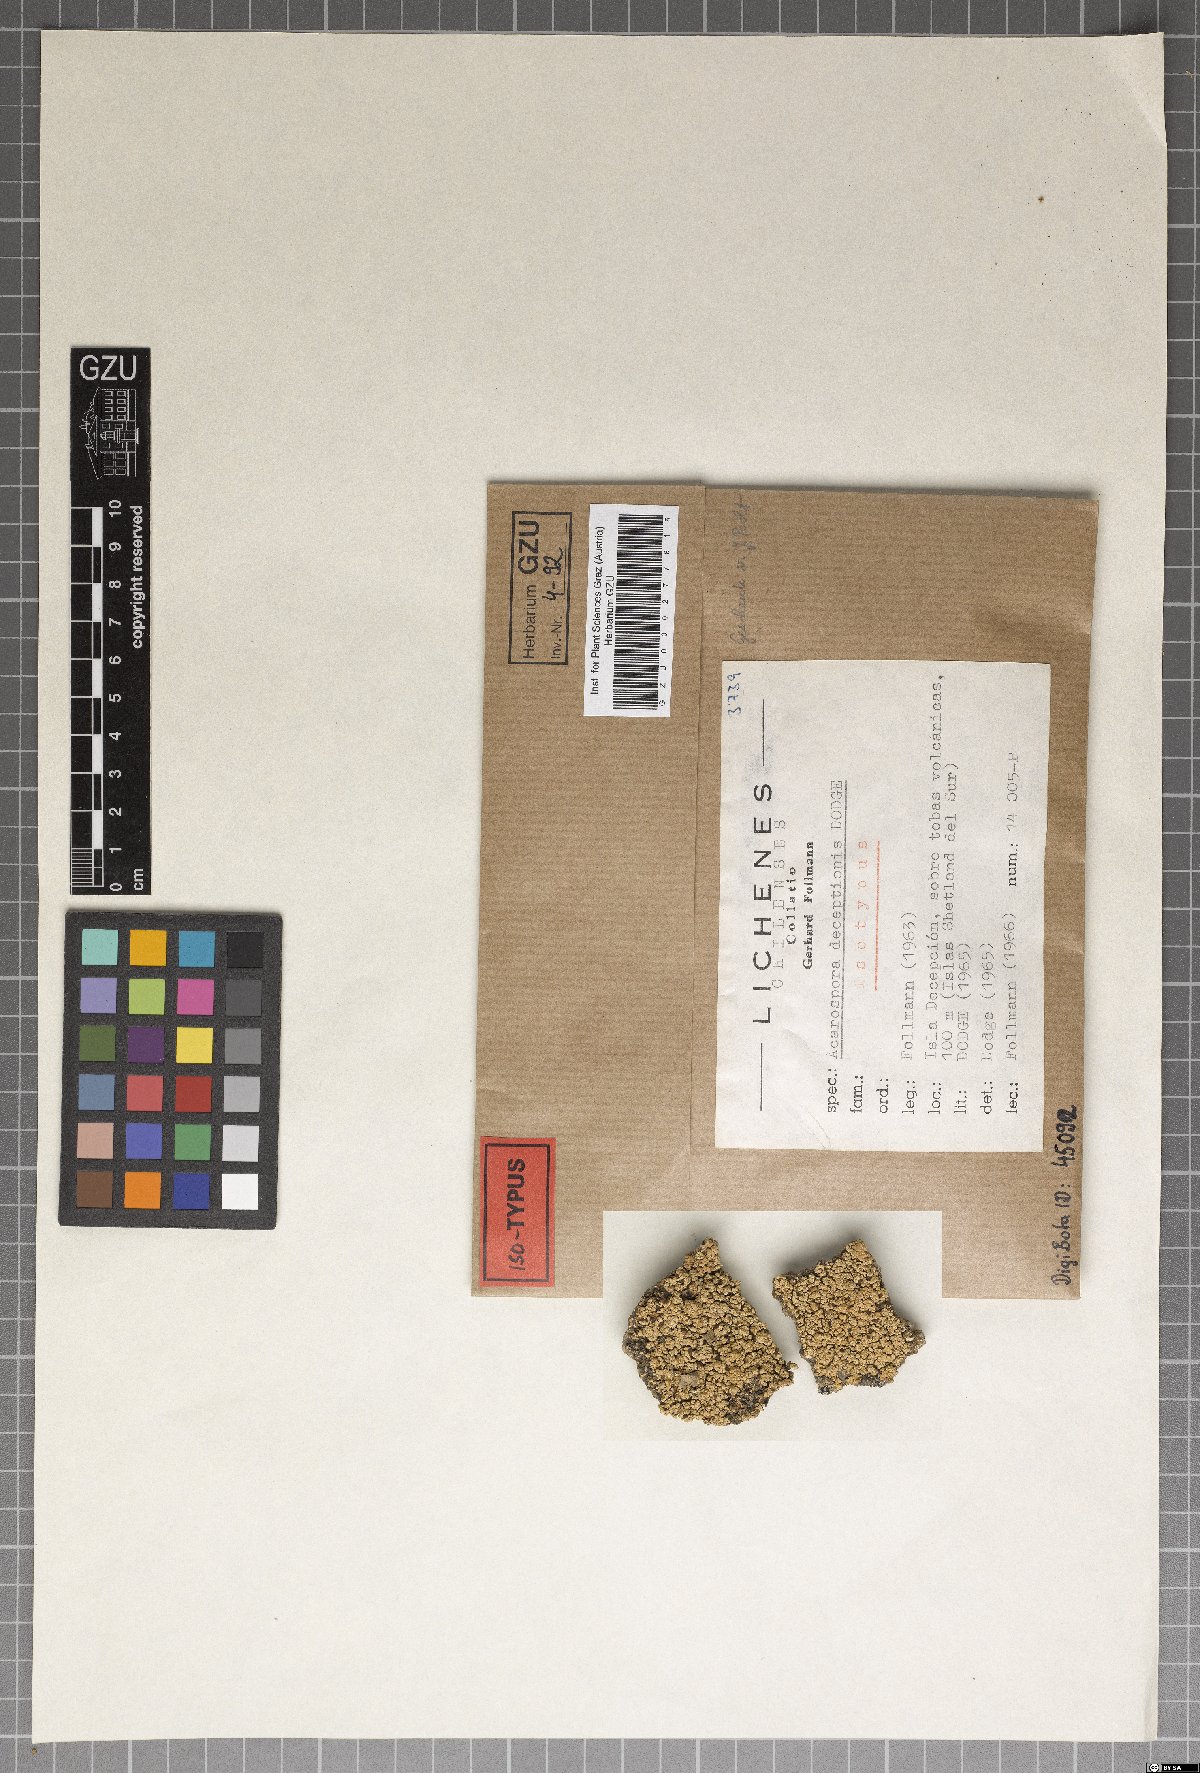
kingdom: Fungi
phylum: Ascomycota
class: Lecanoromycetes
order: Acarosporales
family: Acarosporaceae
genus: Acarospora
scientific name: Acarospora
